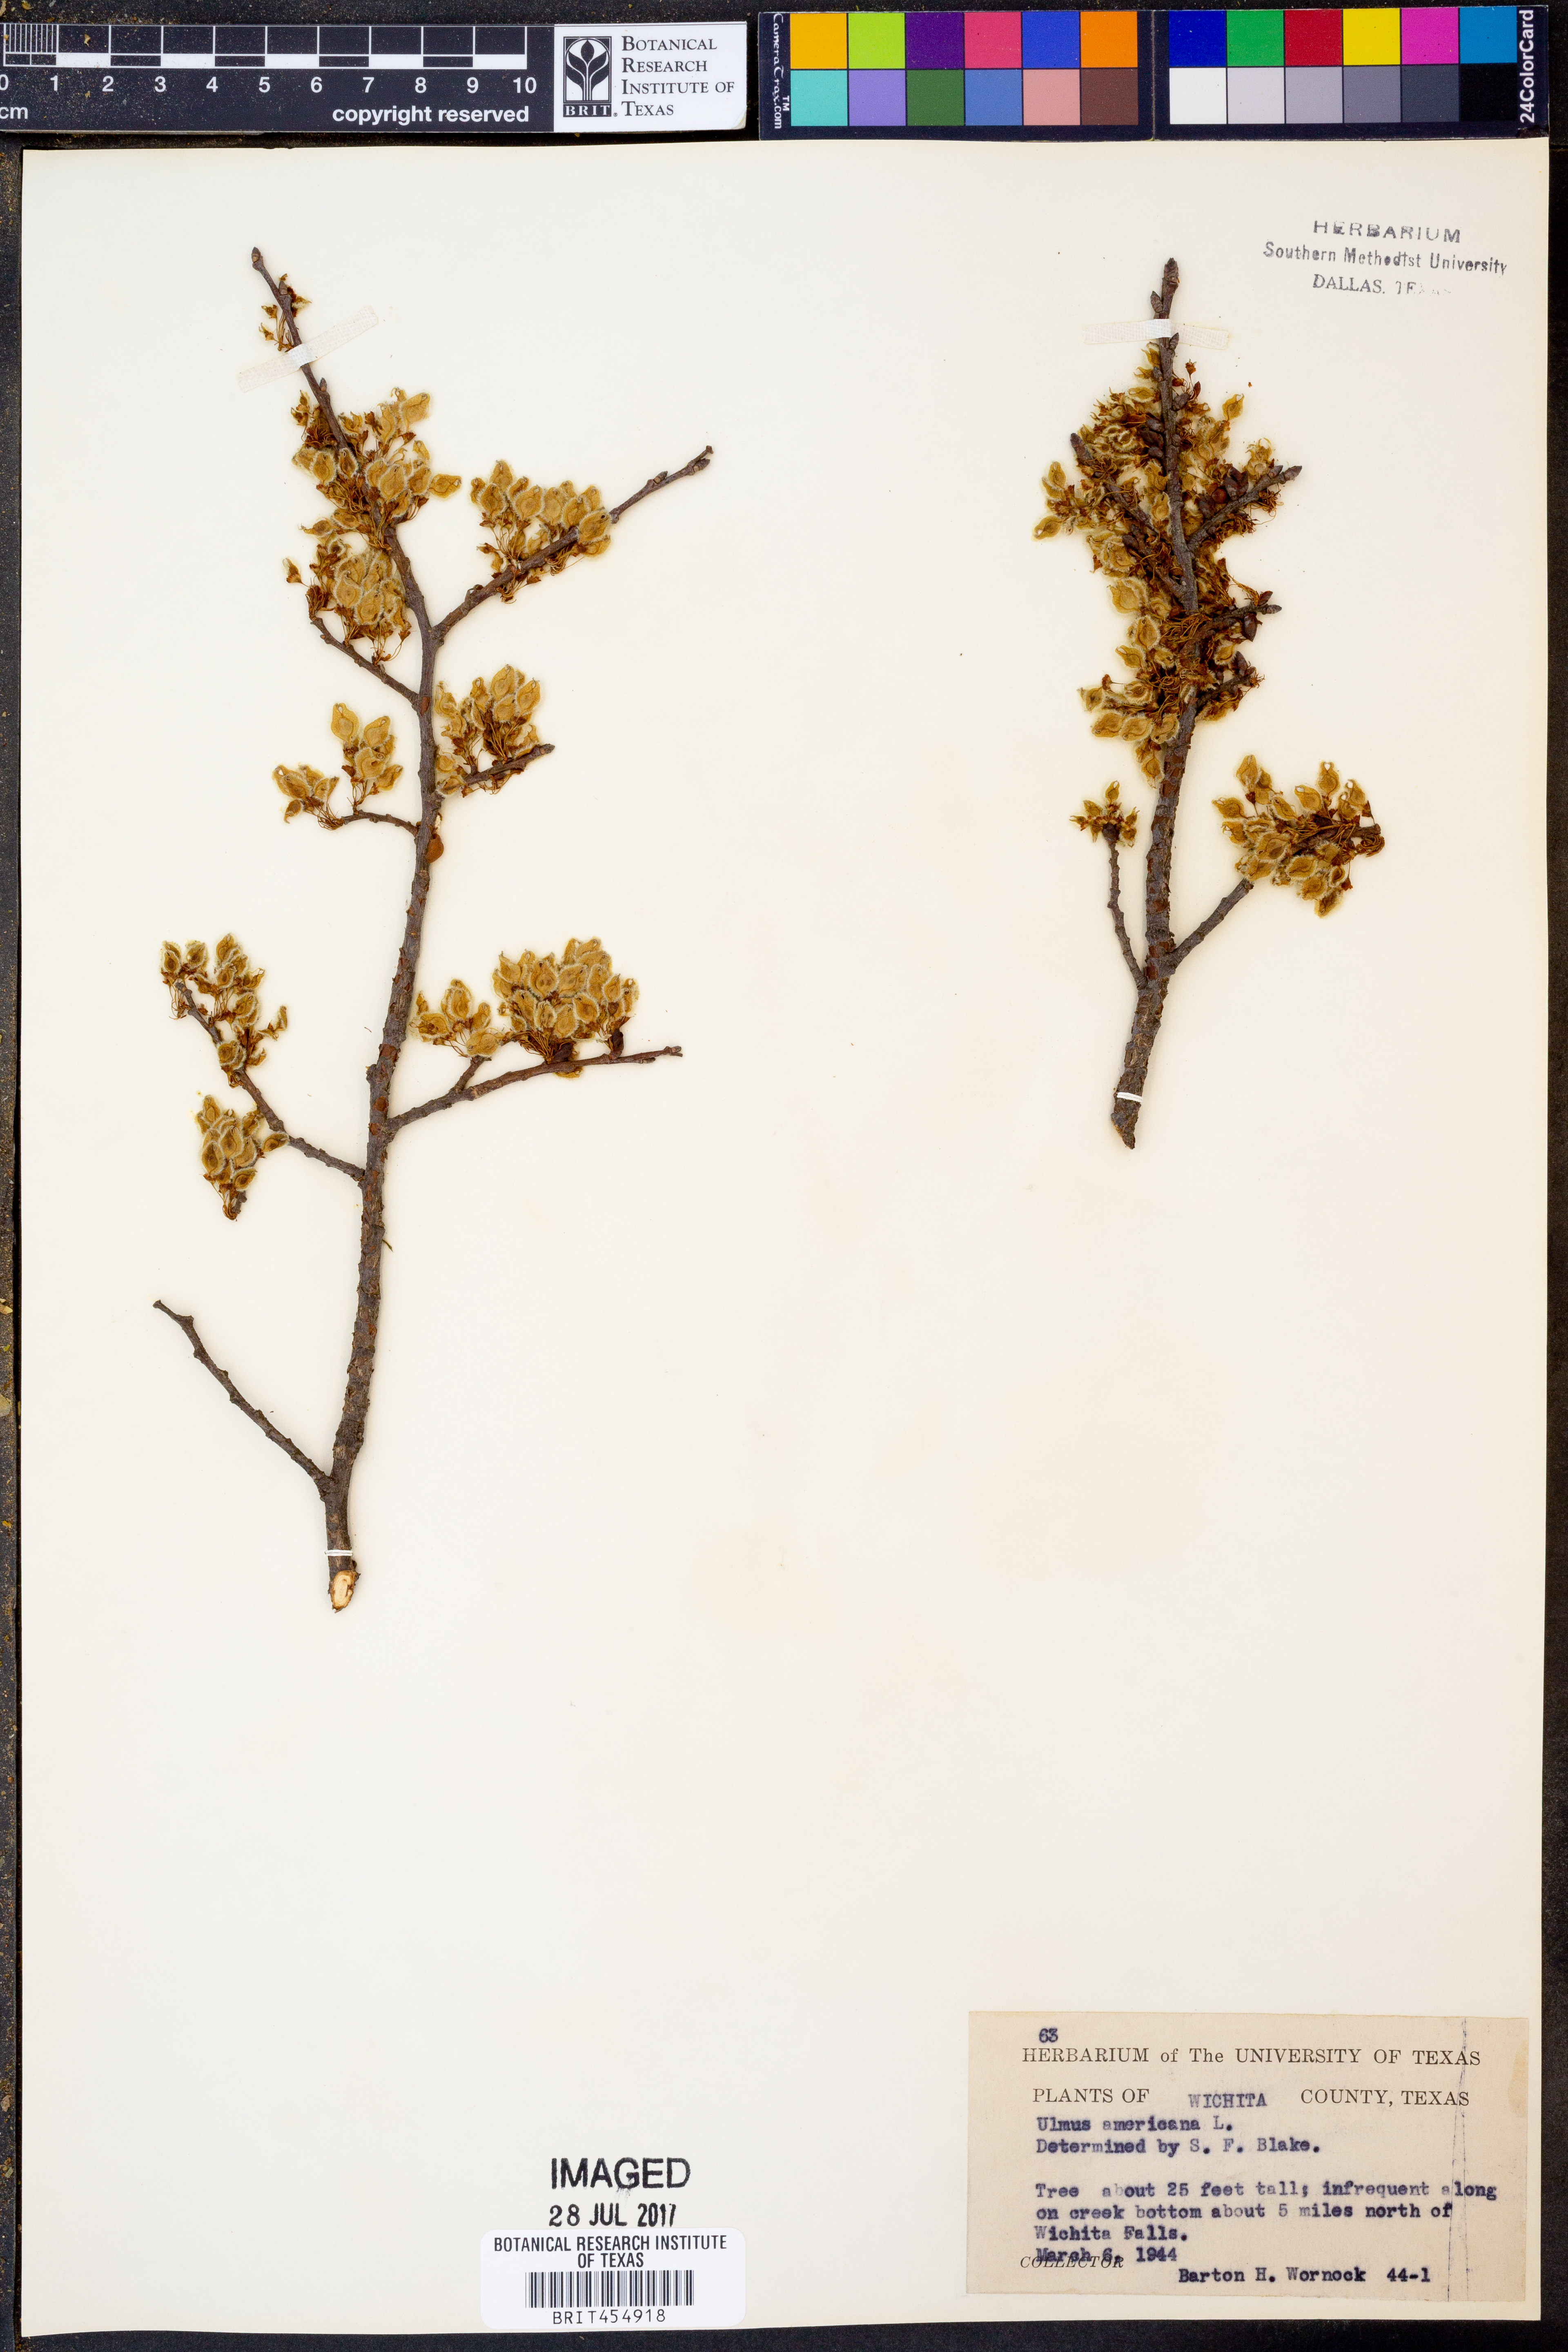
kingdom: Plantae
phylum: Tracheophyta
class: Magnoliopsida
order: Rosales
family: Ulmaceae
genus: Ulmus
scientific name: Ulmus americana
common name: American elm
